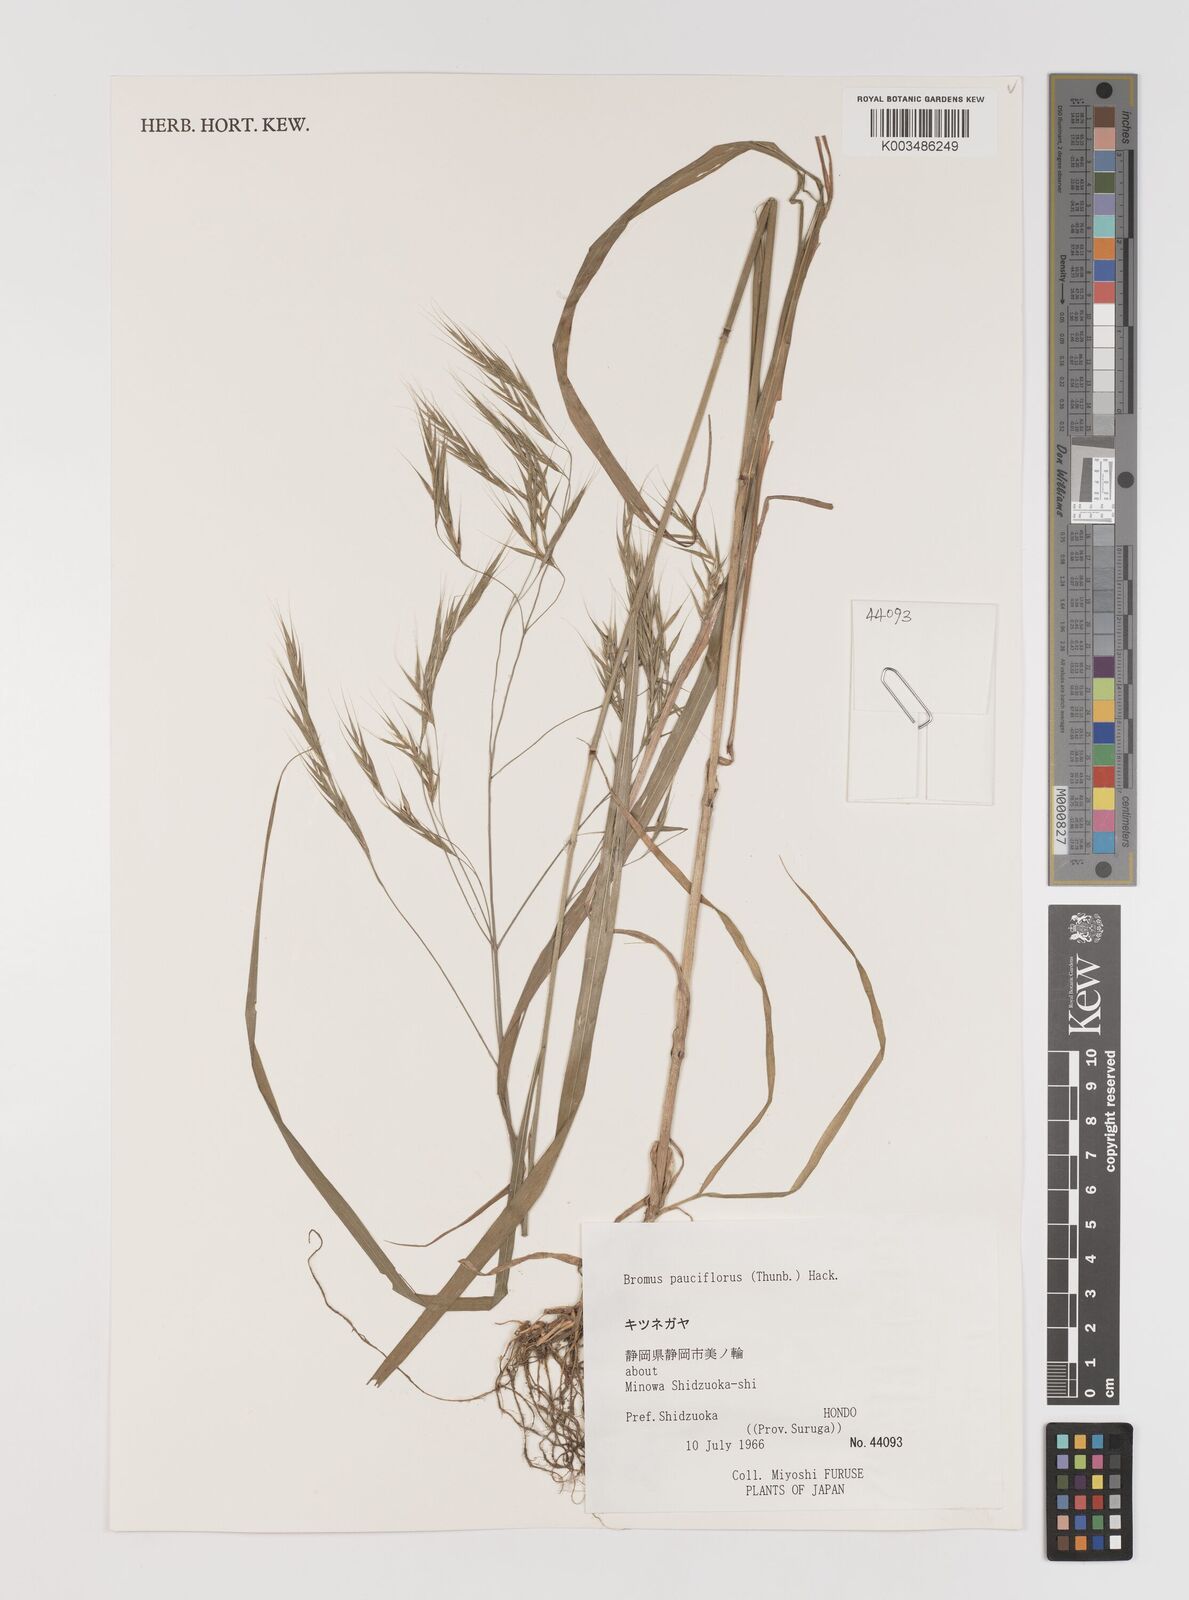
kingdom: Plantae
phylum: Tracheophyta
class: Liliopsida
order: Poales
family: Poaceae
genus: Bromus
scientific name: Bromus remotiflorus
